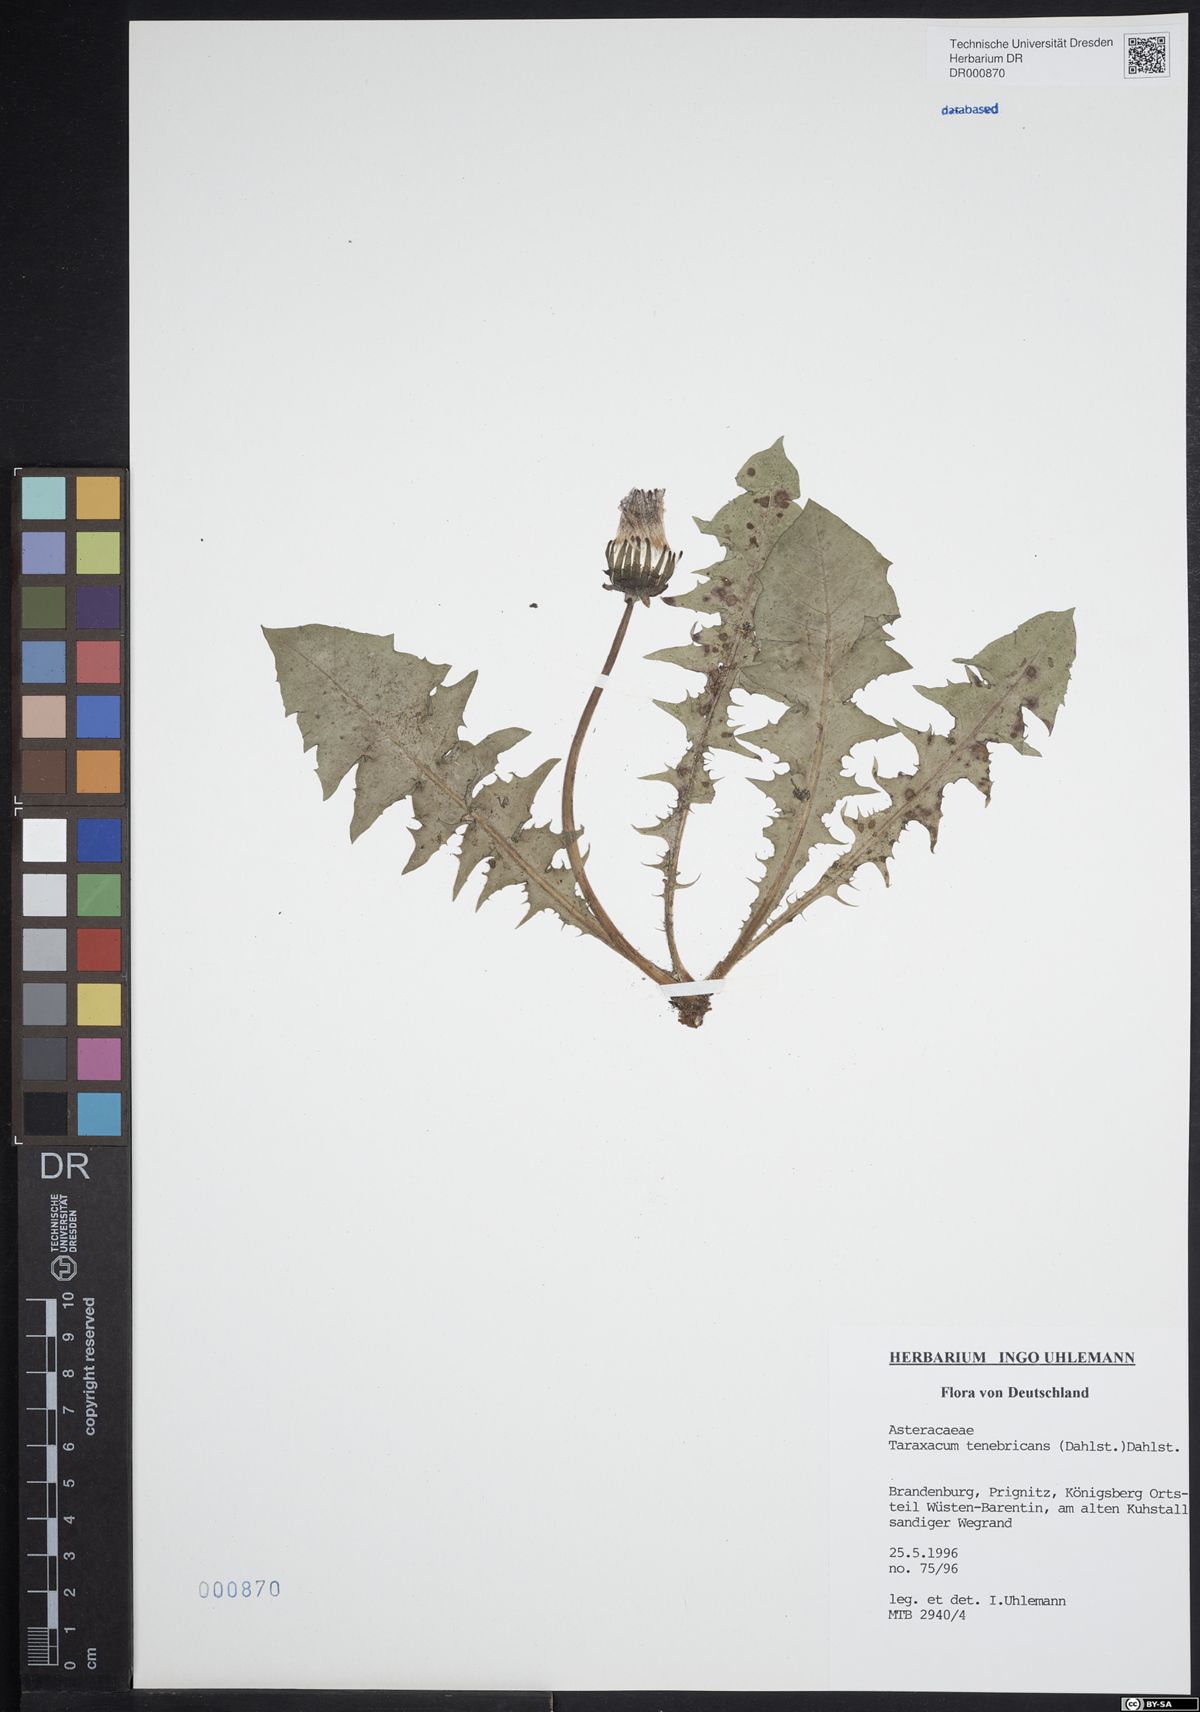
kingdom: Plantae
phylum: Tracheophyta
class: Magnoliopsida
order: Asterales
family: Asteraceae
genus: Taraxacum
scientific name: Taraxacum tenebricans
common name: Shiny-leaved dandelion
